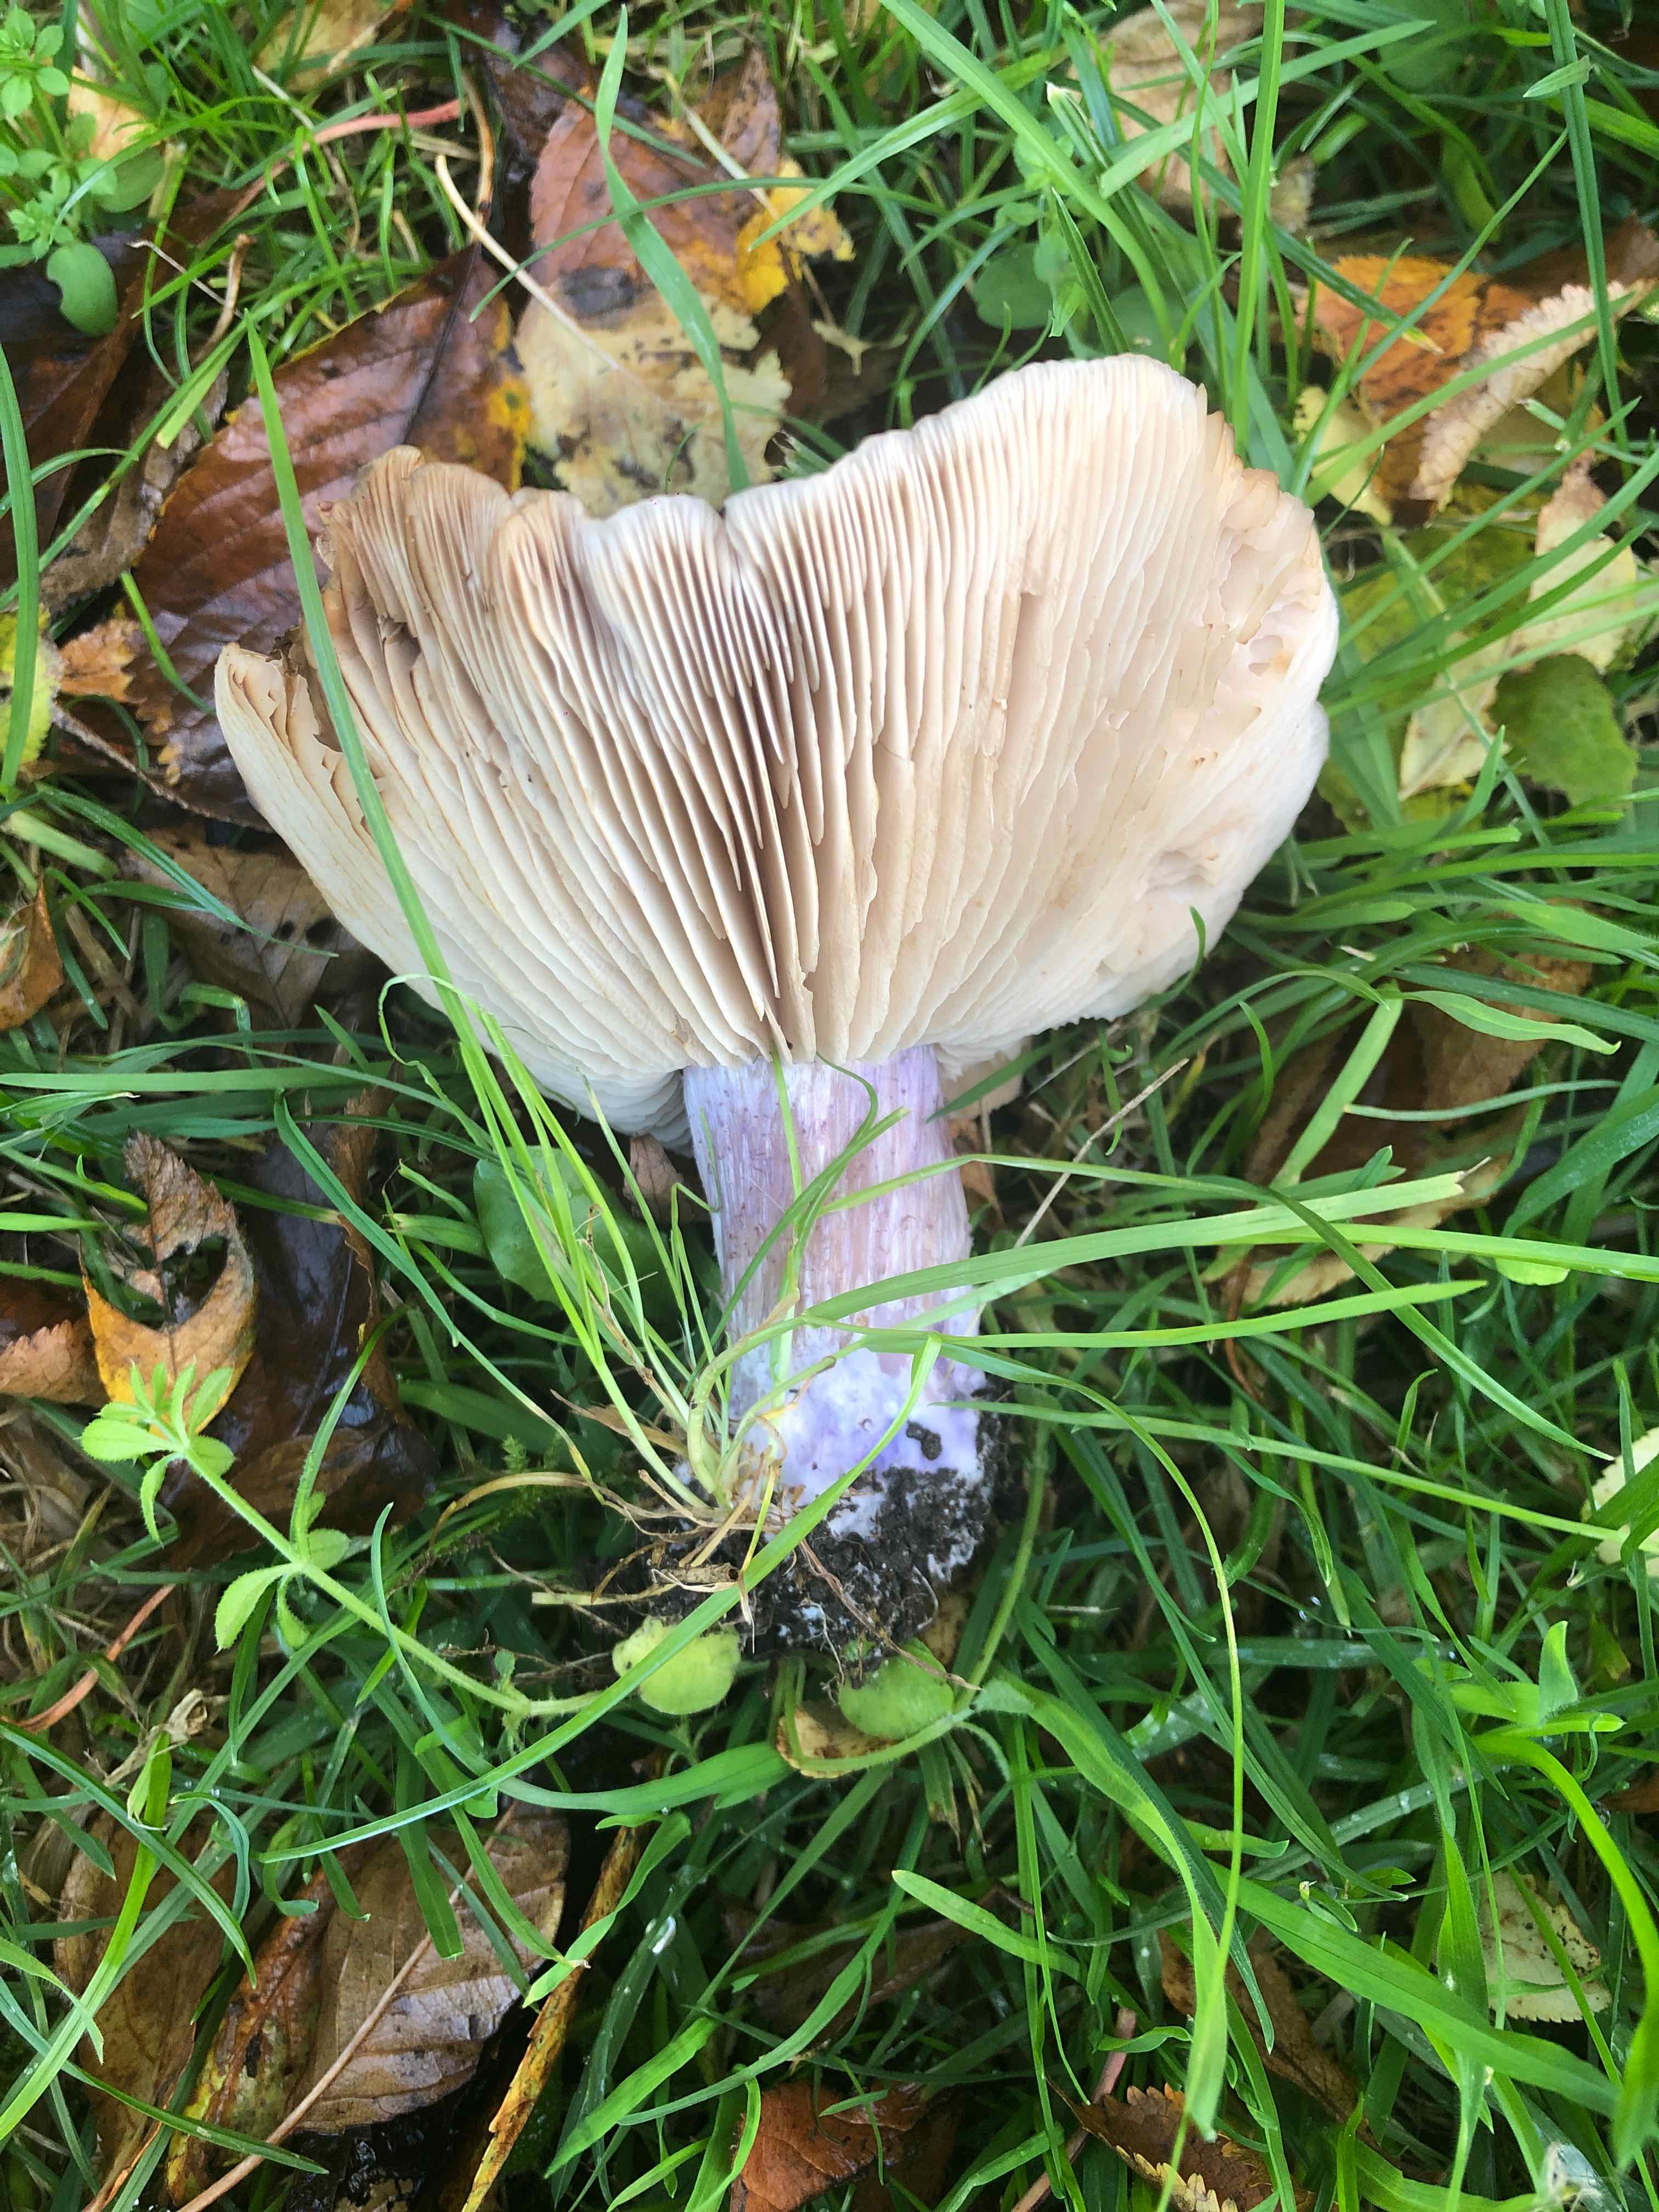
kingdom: Fungi
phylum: Basidiomycota
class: Agaricomycetes
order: Agaricales
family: Tricholomataceae
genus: Lepista
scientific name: Lepista personata
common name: bleg hekseringshat
